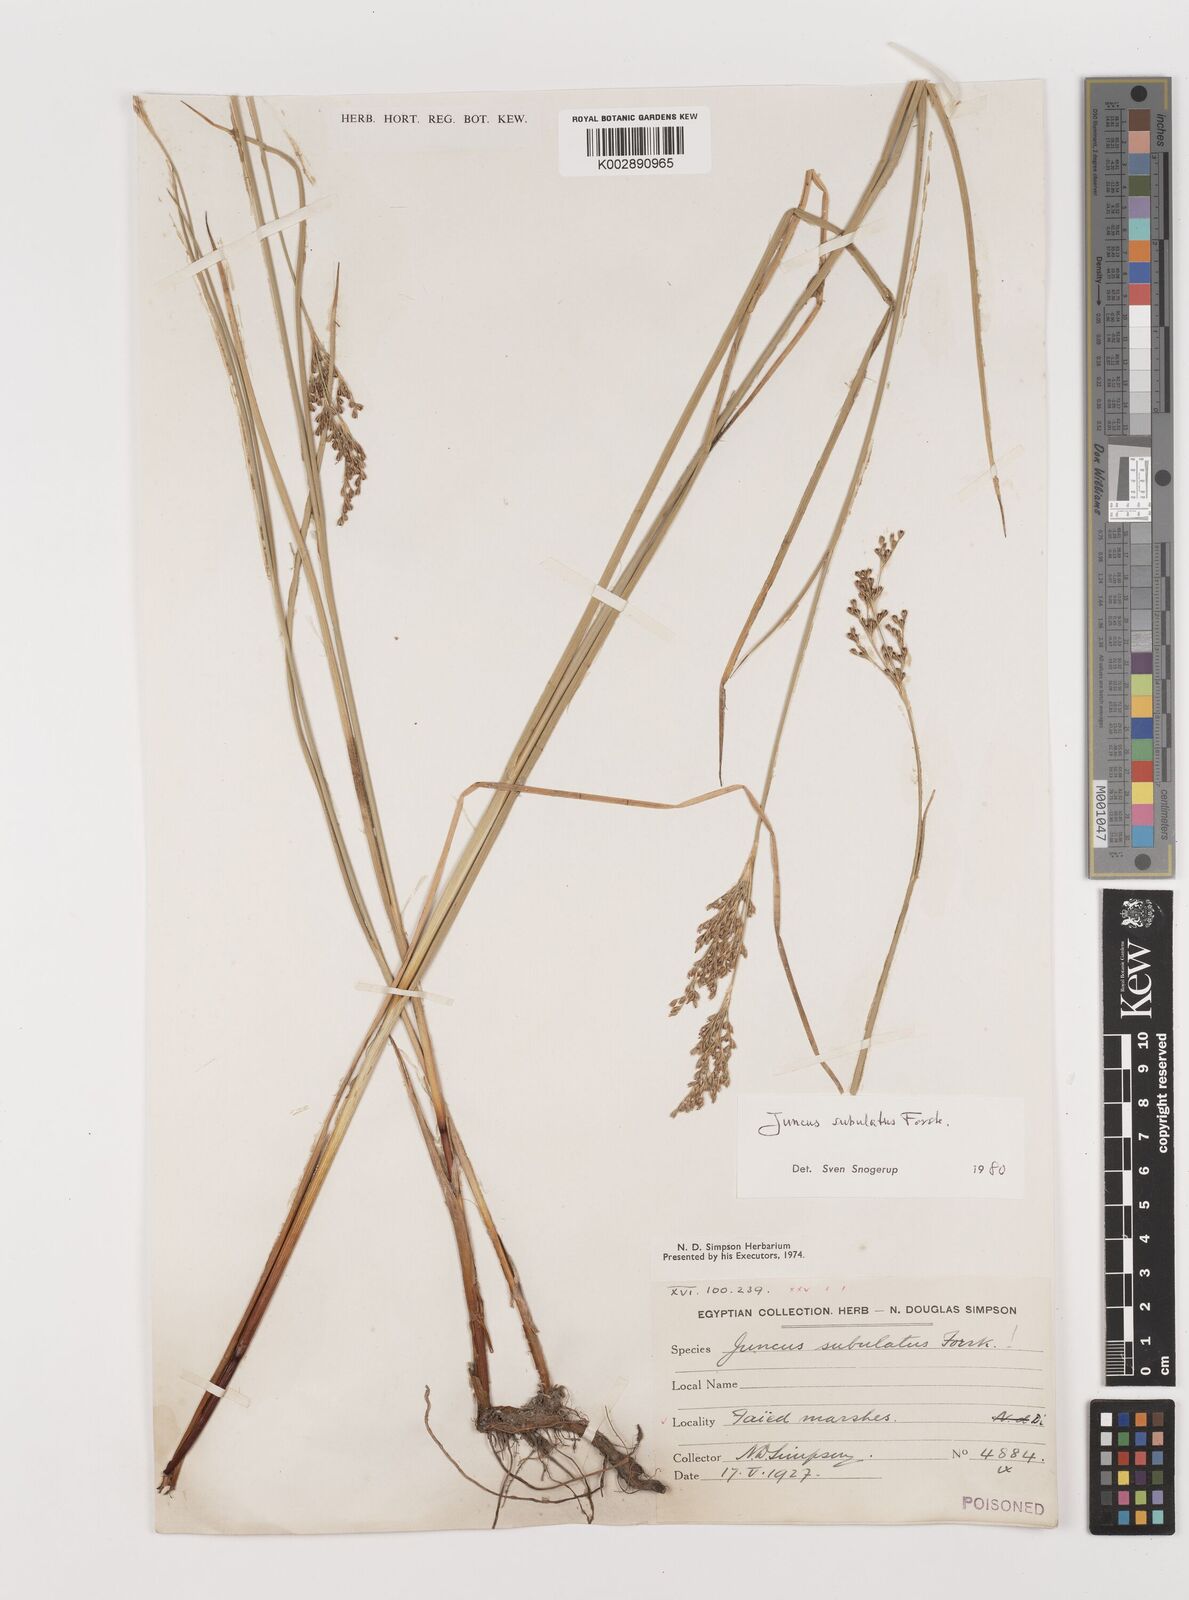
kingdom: Plantae
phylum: Tracheophyta
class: Liliopsida
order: Poales
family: Juncaceae
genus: Juncus
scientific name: Juncus subulatus
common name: Somerset rush
